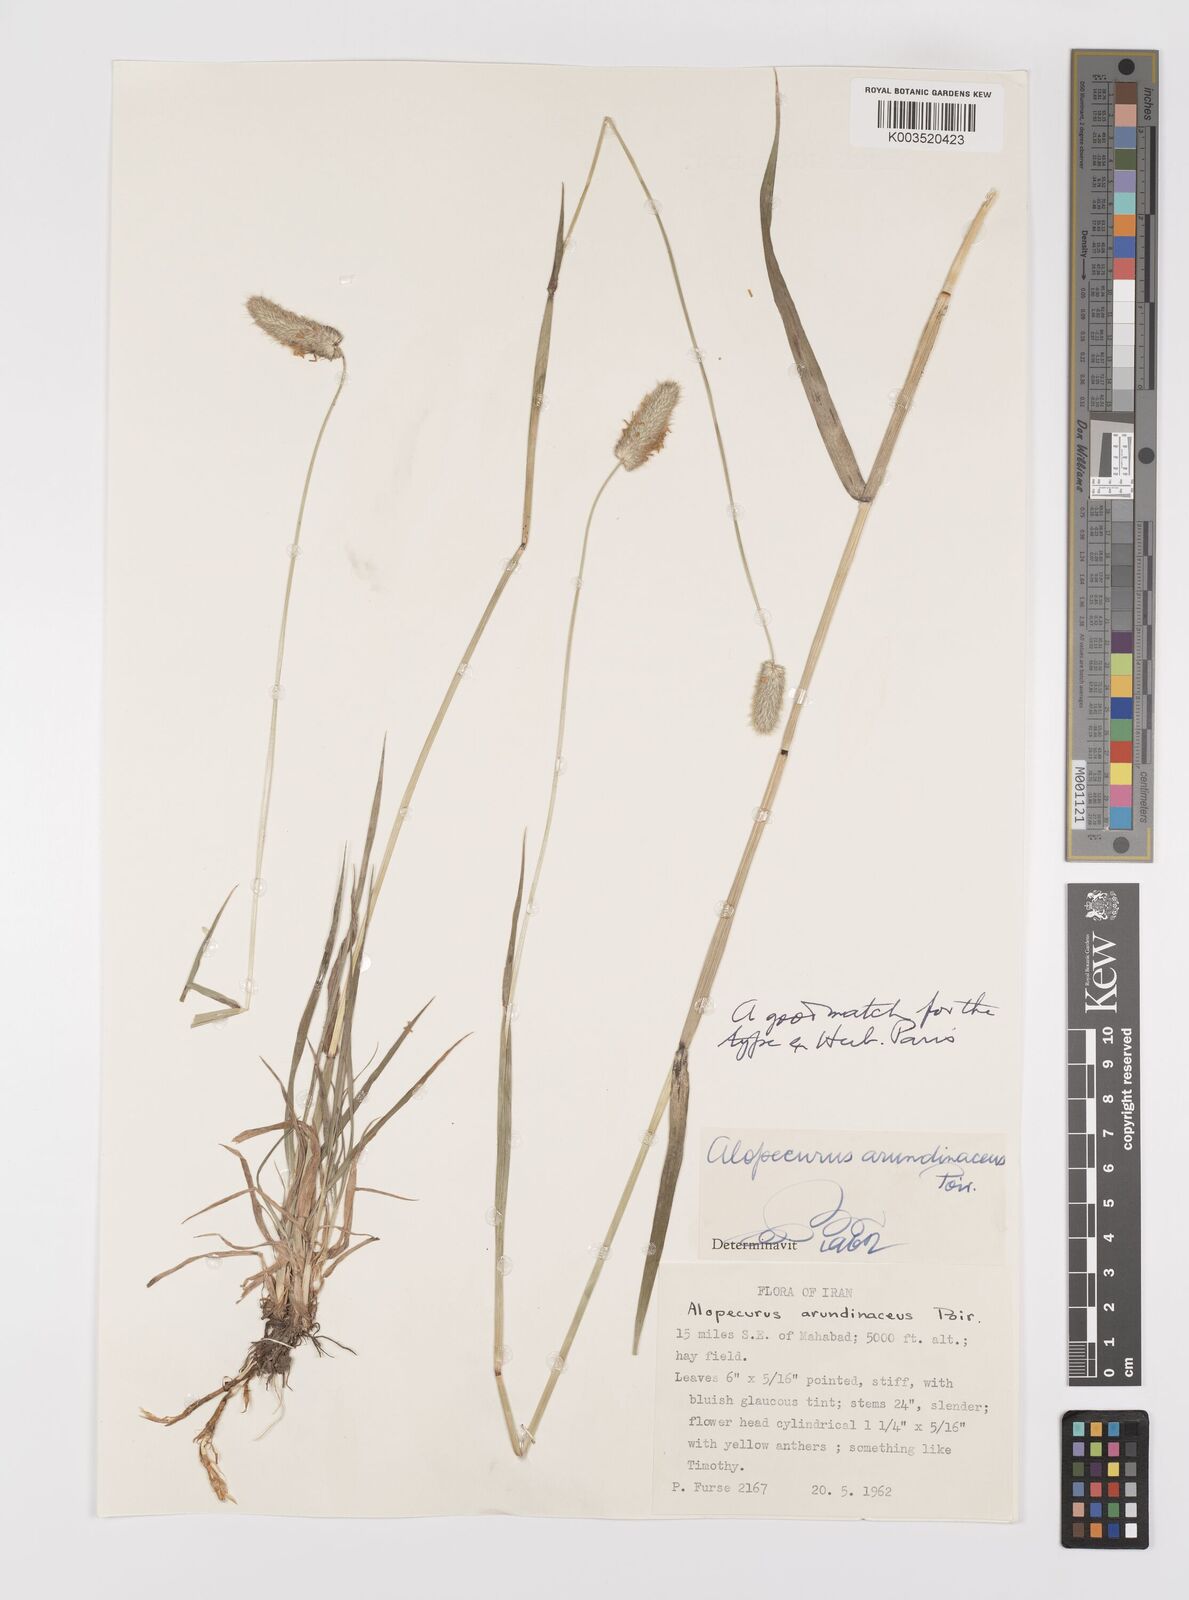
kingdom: Plantae
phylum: Tracheophyta
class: Liliopsida
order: Poales
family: Poaceae
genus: Alopecurus
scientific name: Alopecurus arundinaceus
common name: Creeping meadow foxtail
